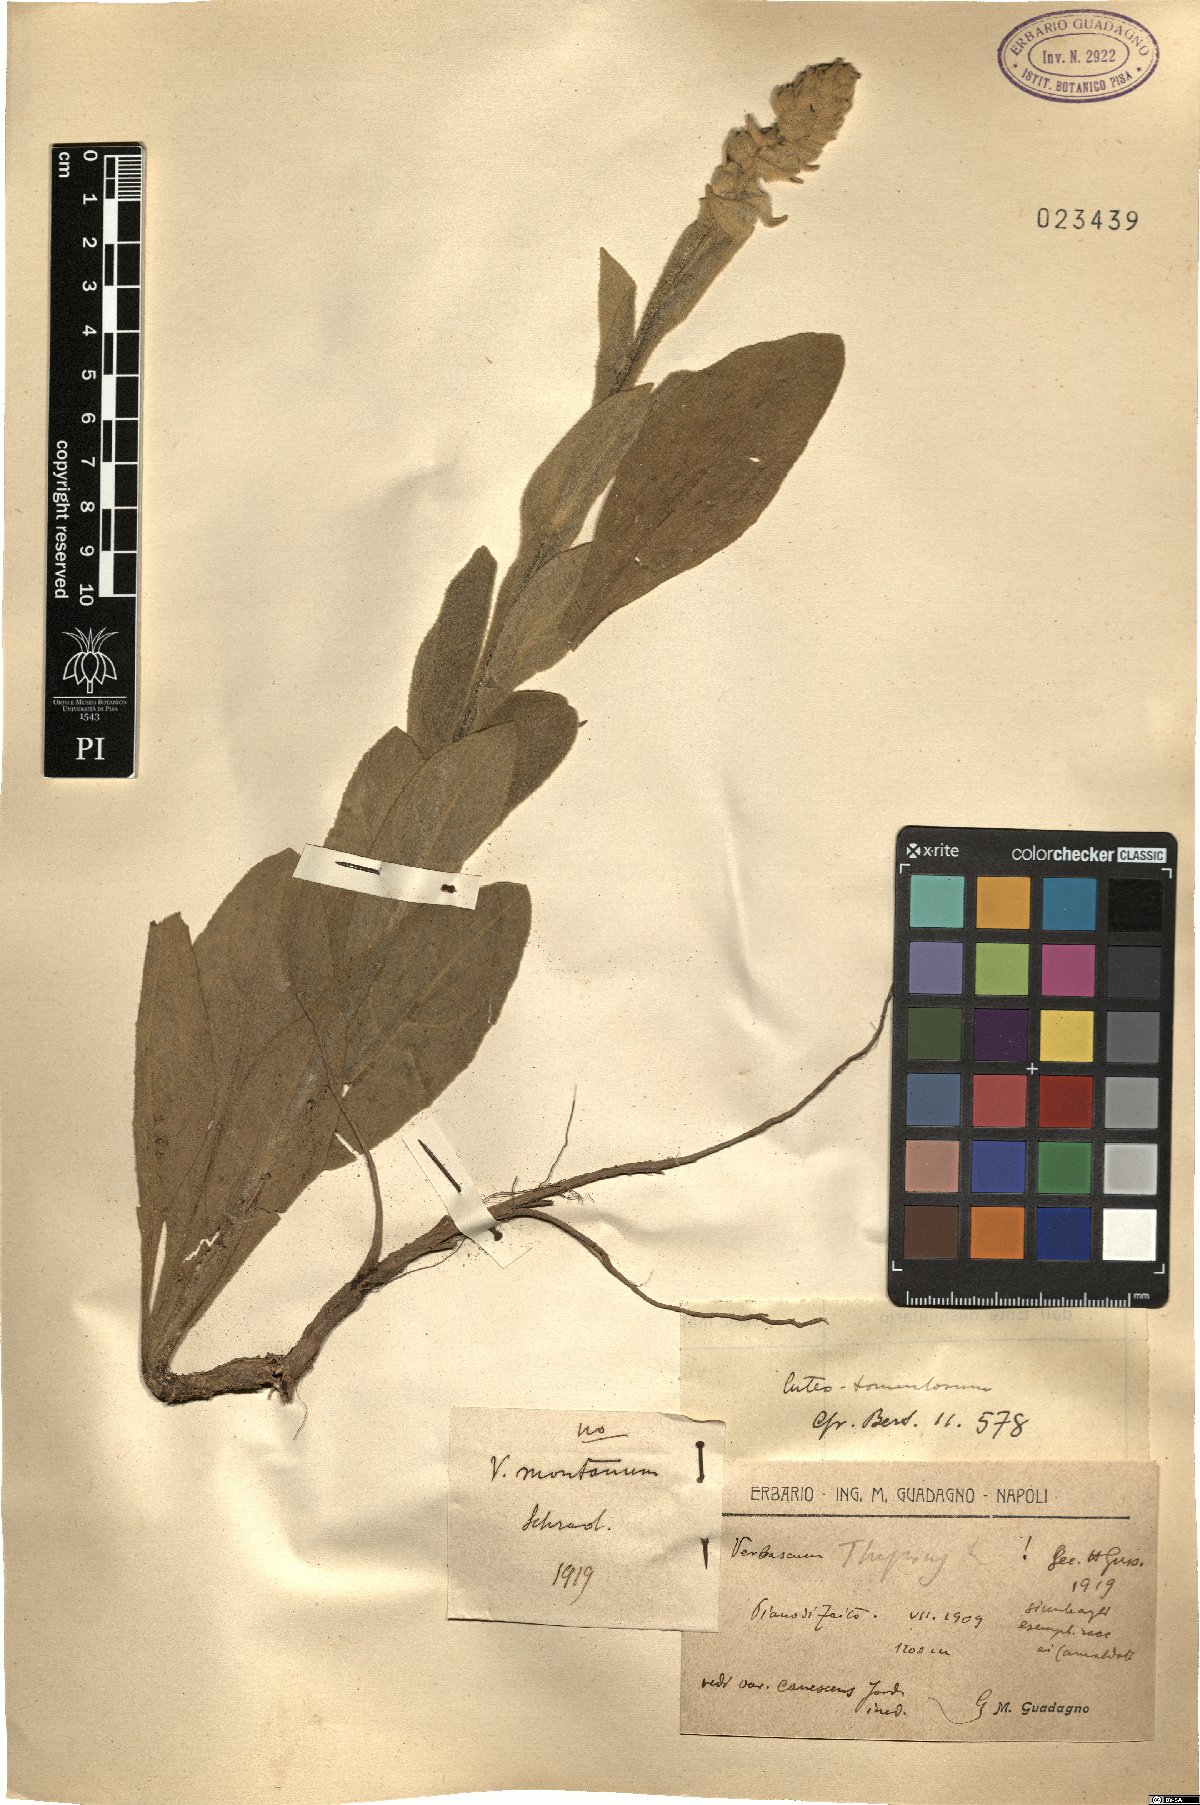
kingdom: Plantae
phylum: Tracheophyta
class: Magnoliopsida
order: Lamiales
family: Scrophulariaceae
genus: Verbascum
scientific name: Verbascum thapsus
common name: Common mullein
